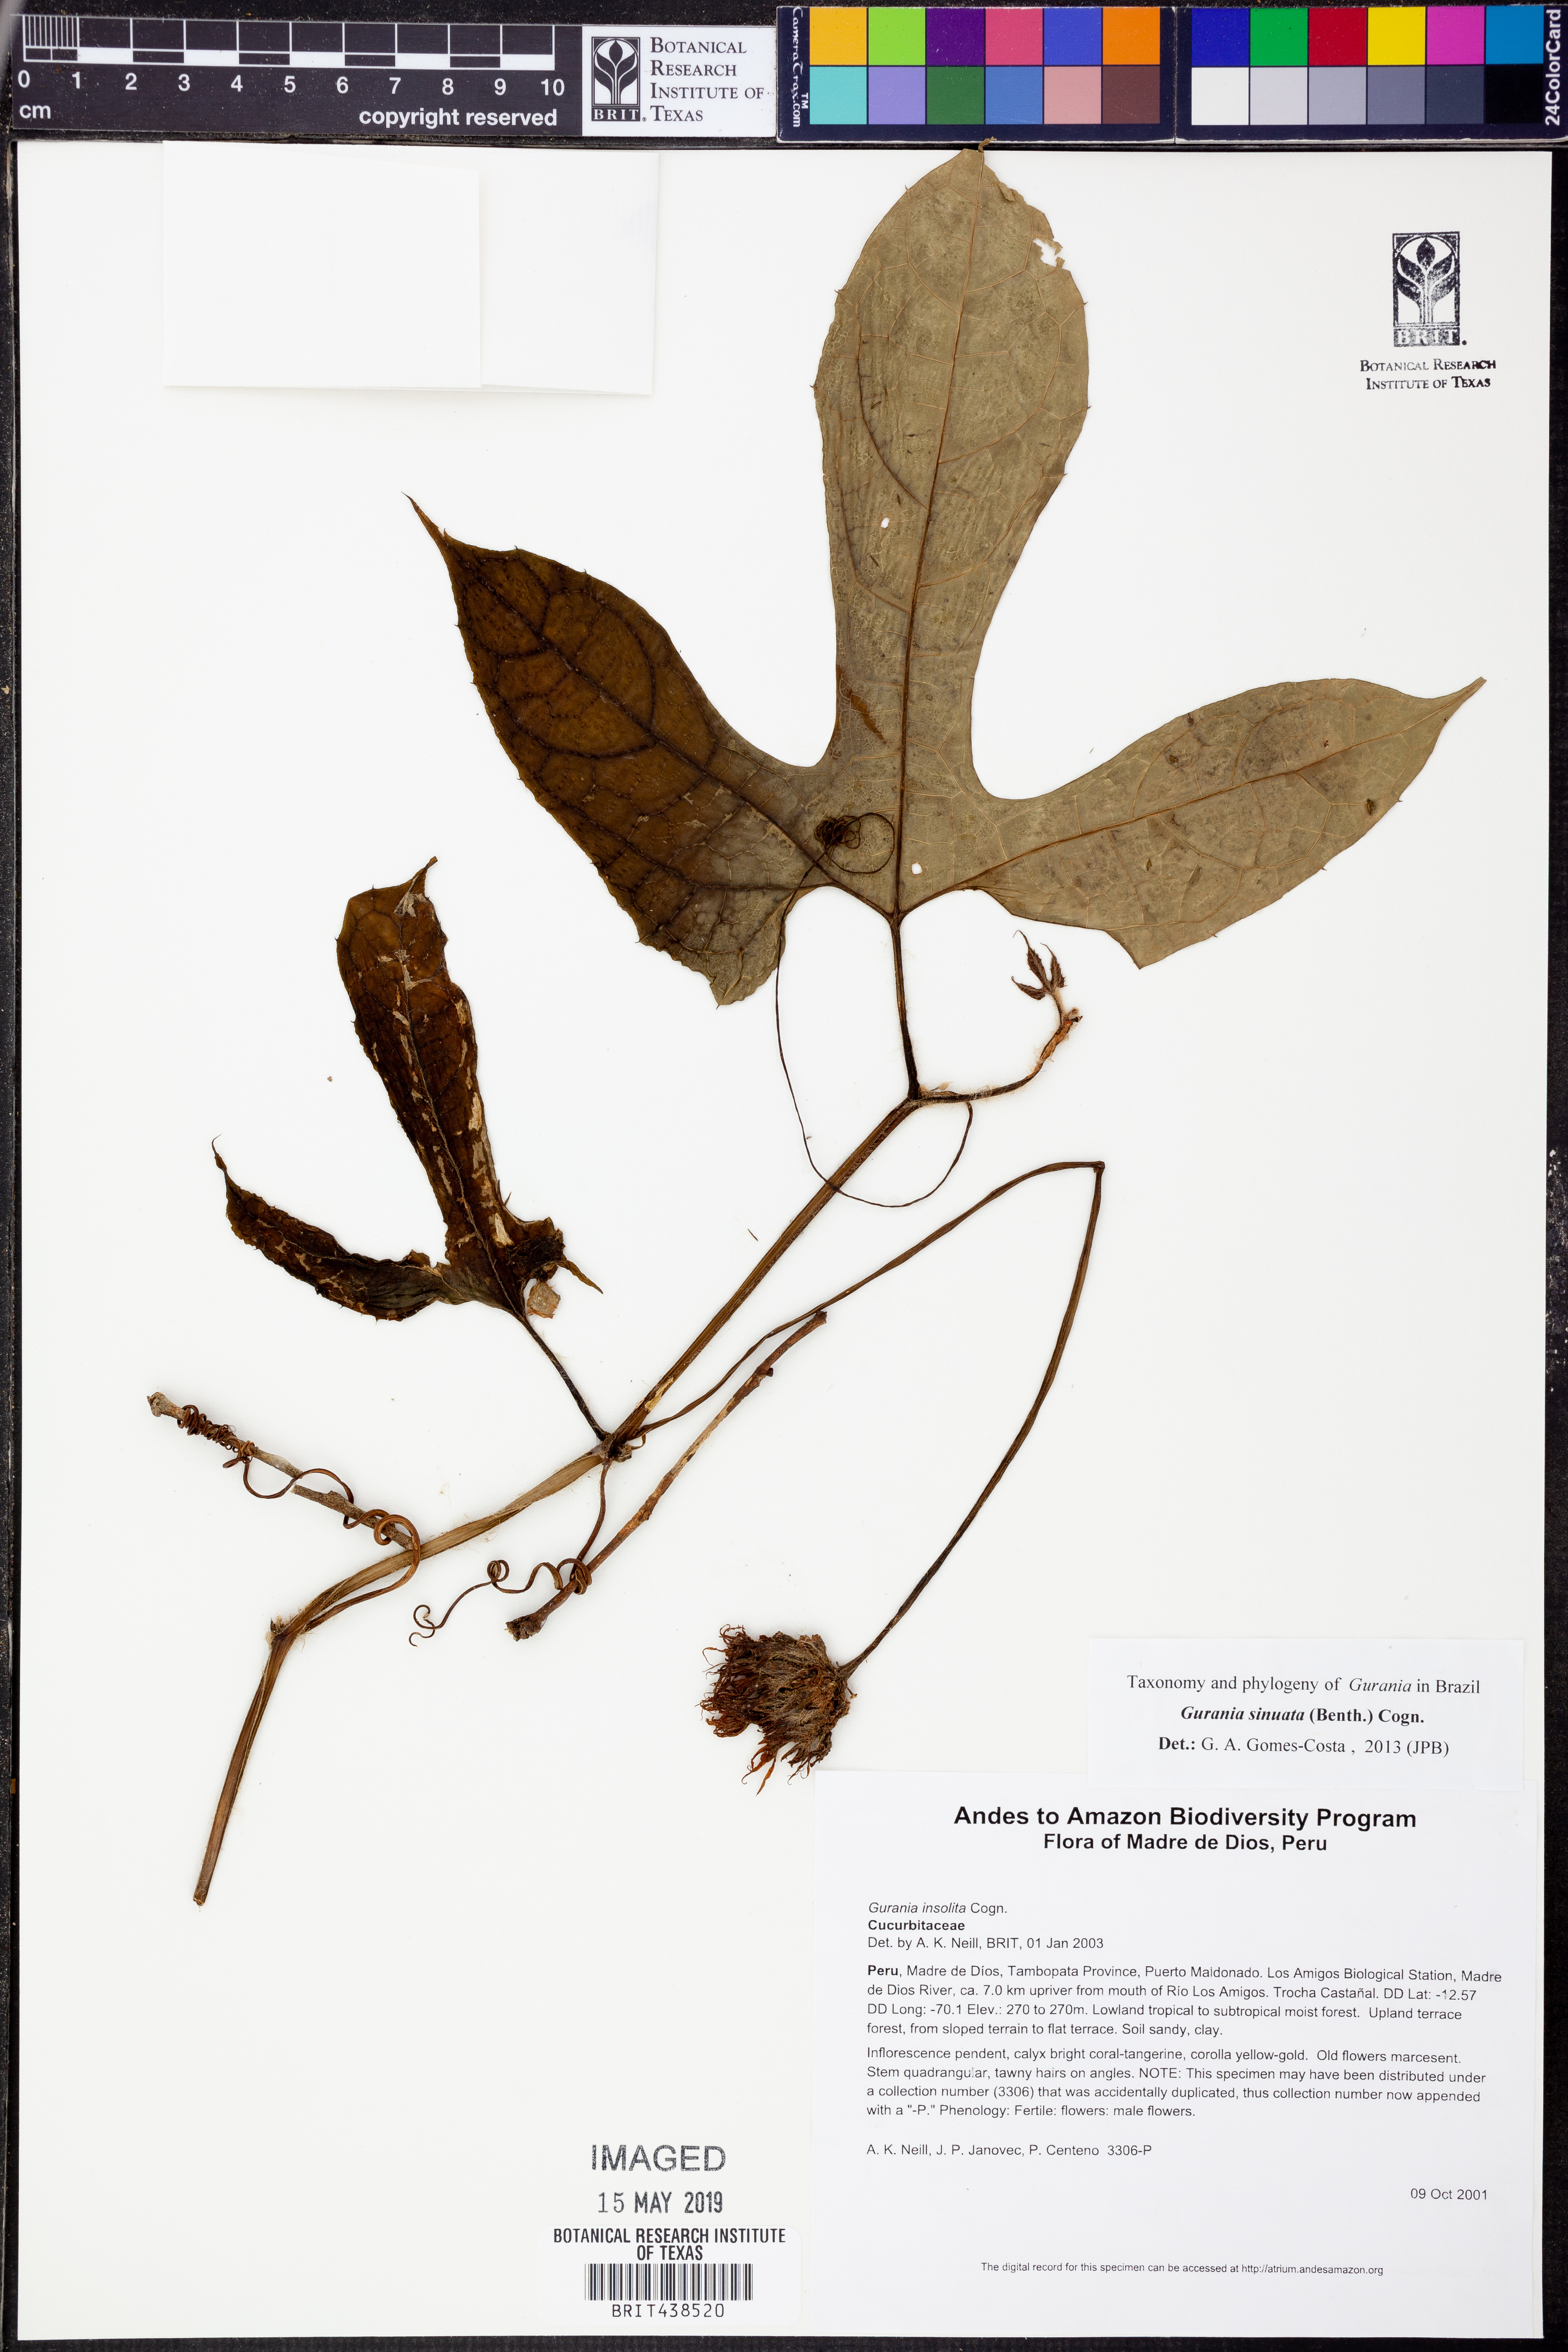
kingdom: Plantae
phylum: Tracheophyta
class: Magnoliopsida
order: Cucurbitales
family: Cucurbitaceae
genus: Gurania
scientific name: Gurania
